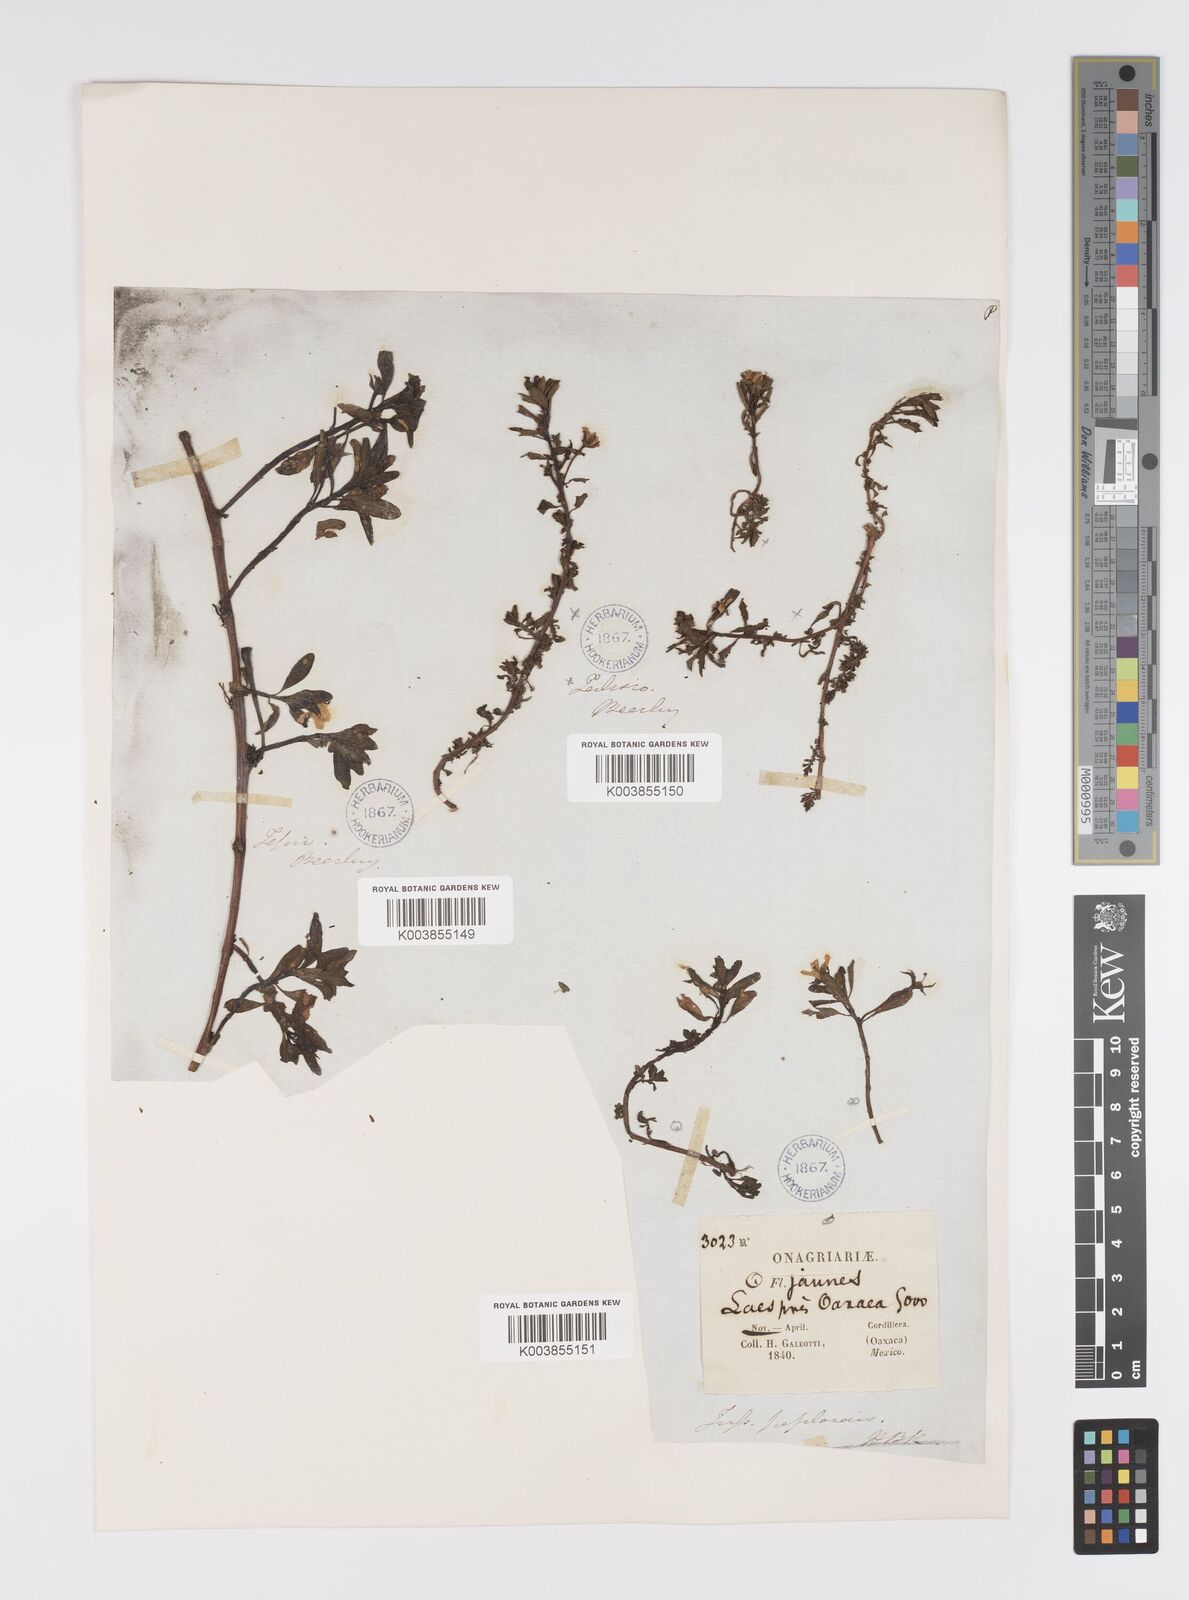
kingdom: Plantae
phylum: Tracheophyta
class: Magnoliopsida
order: Myrtales
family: Onagraceae
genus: Ludwigia
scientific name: Ludwigia adscendens
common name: Creeping water primrose
